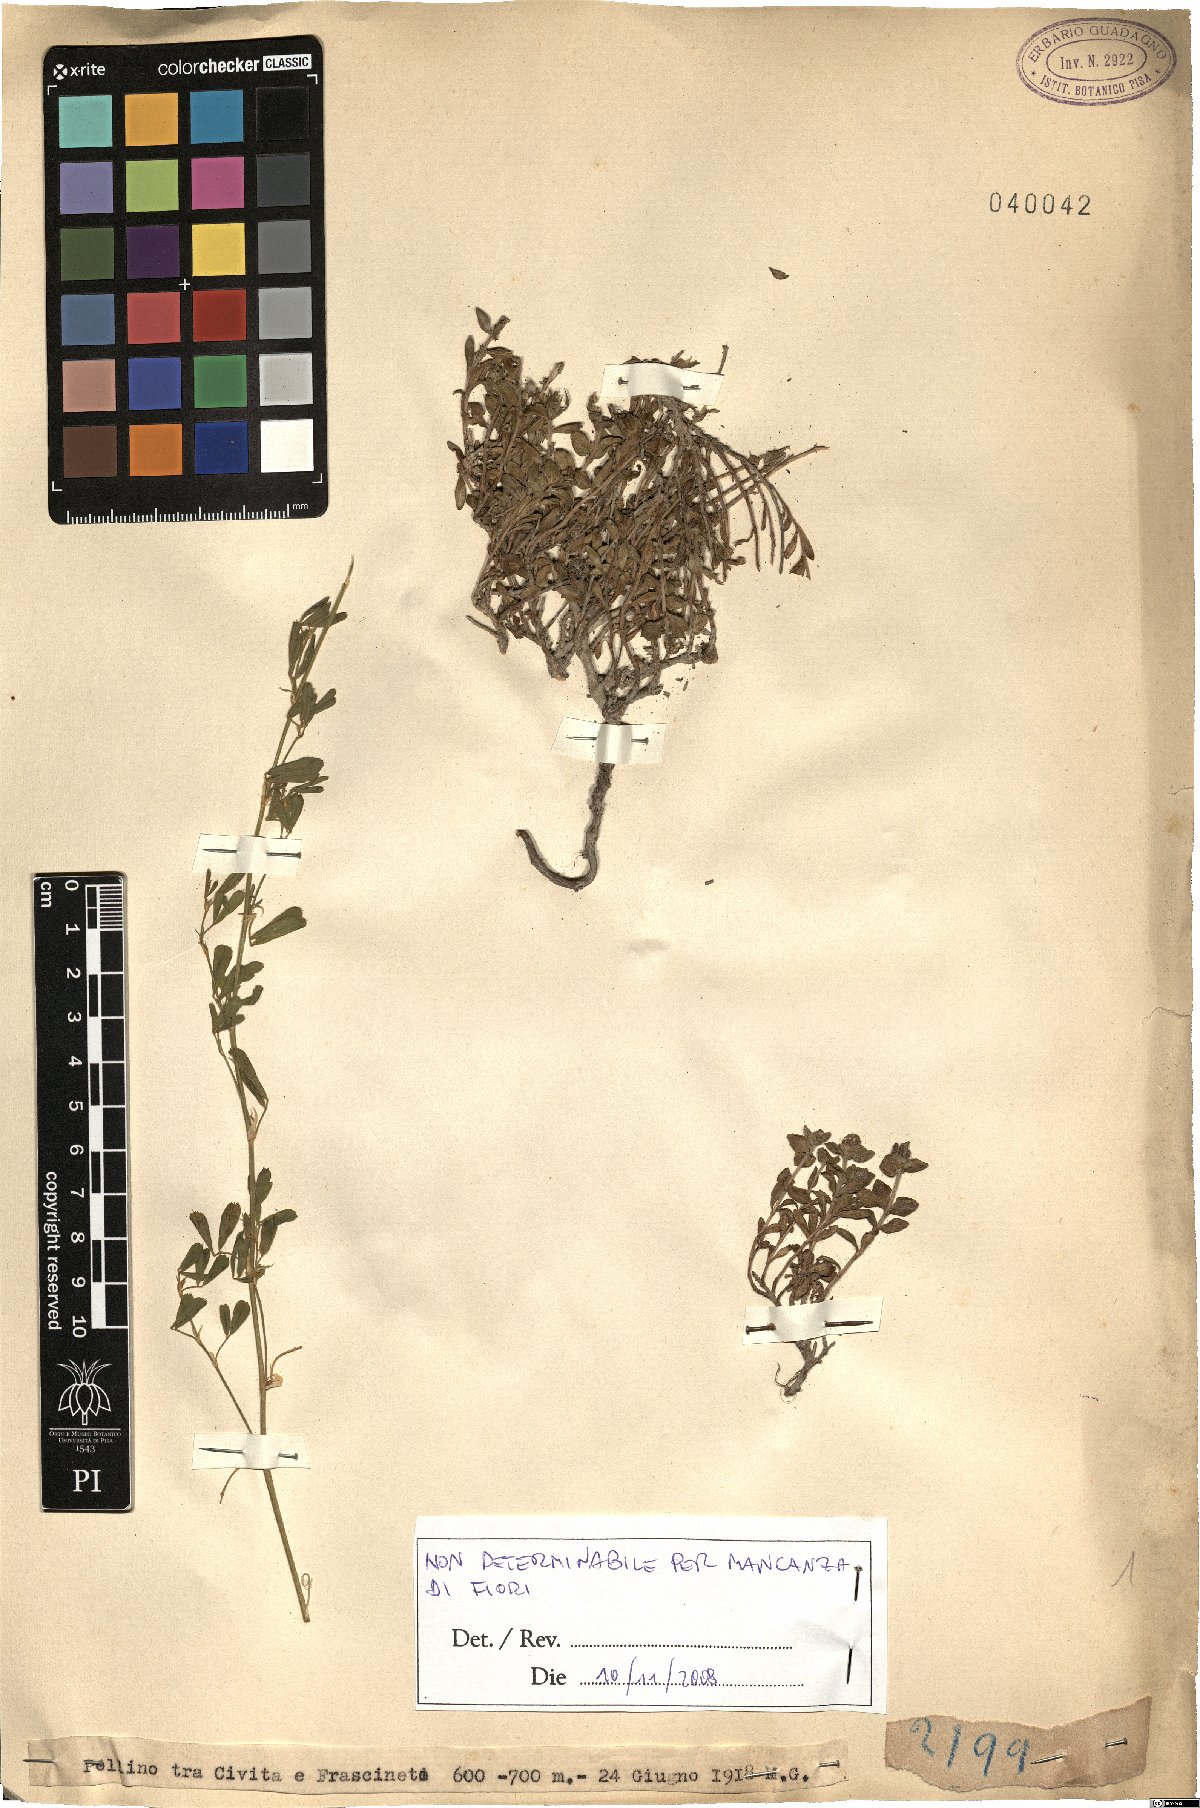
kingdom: Plantae
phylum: Tracheophyta
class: Magnoliopsida
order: Lamiales
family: Lamiaceae
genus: Thymus
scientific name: Thymus
